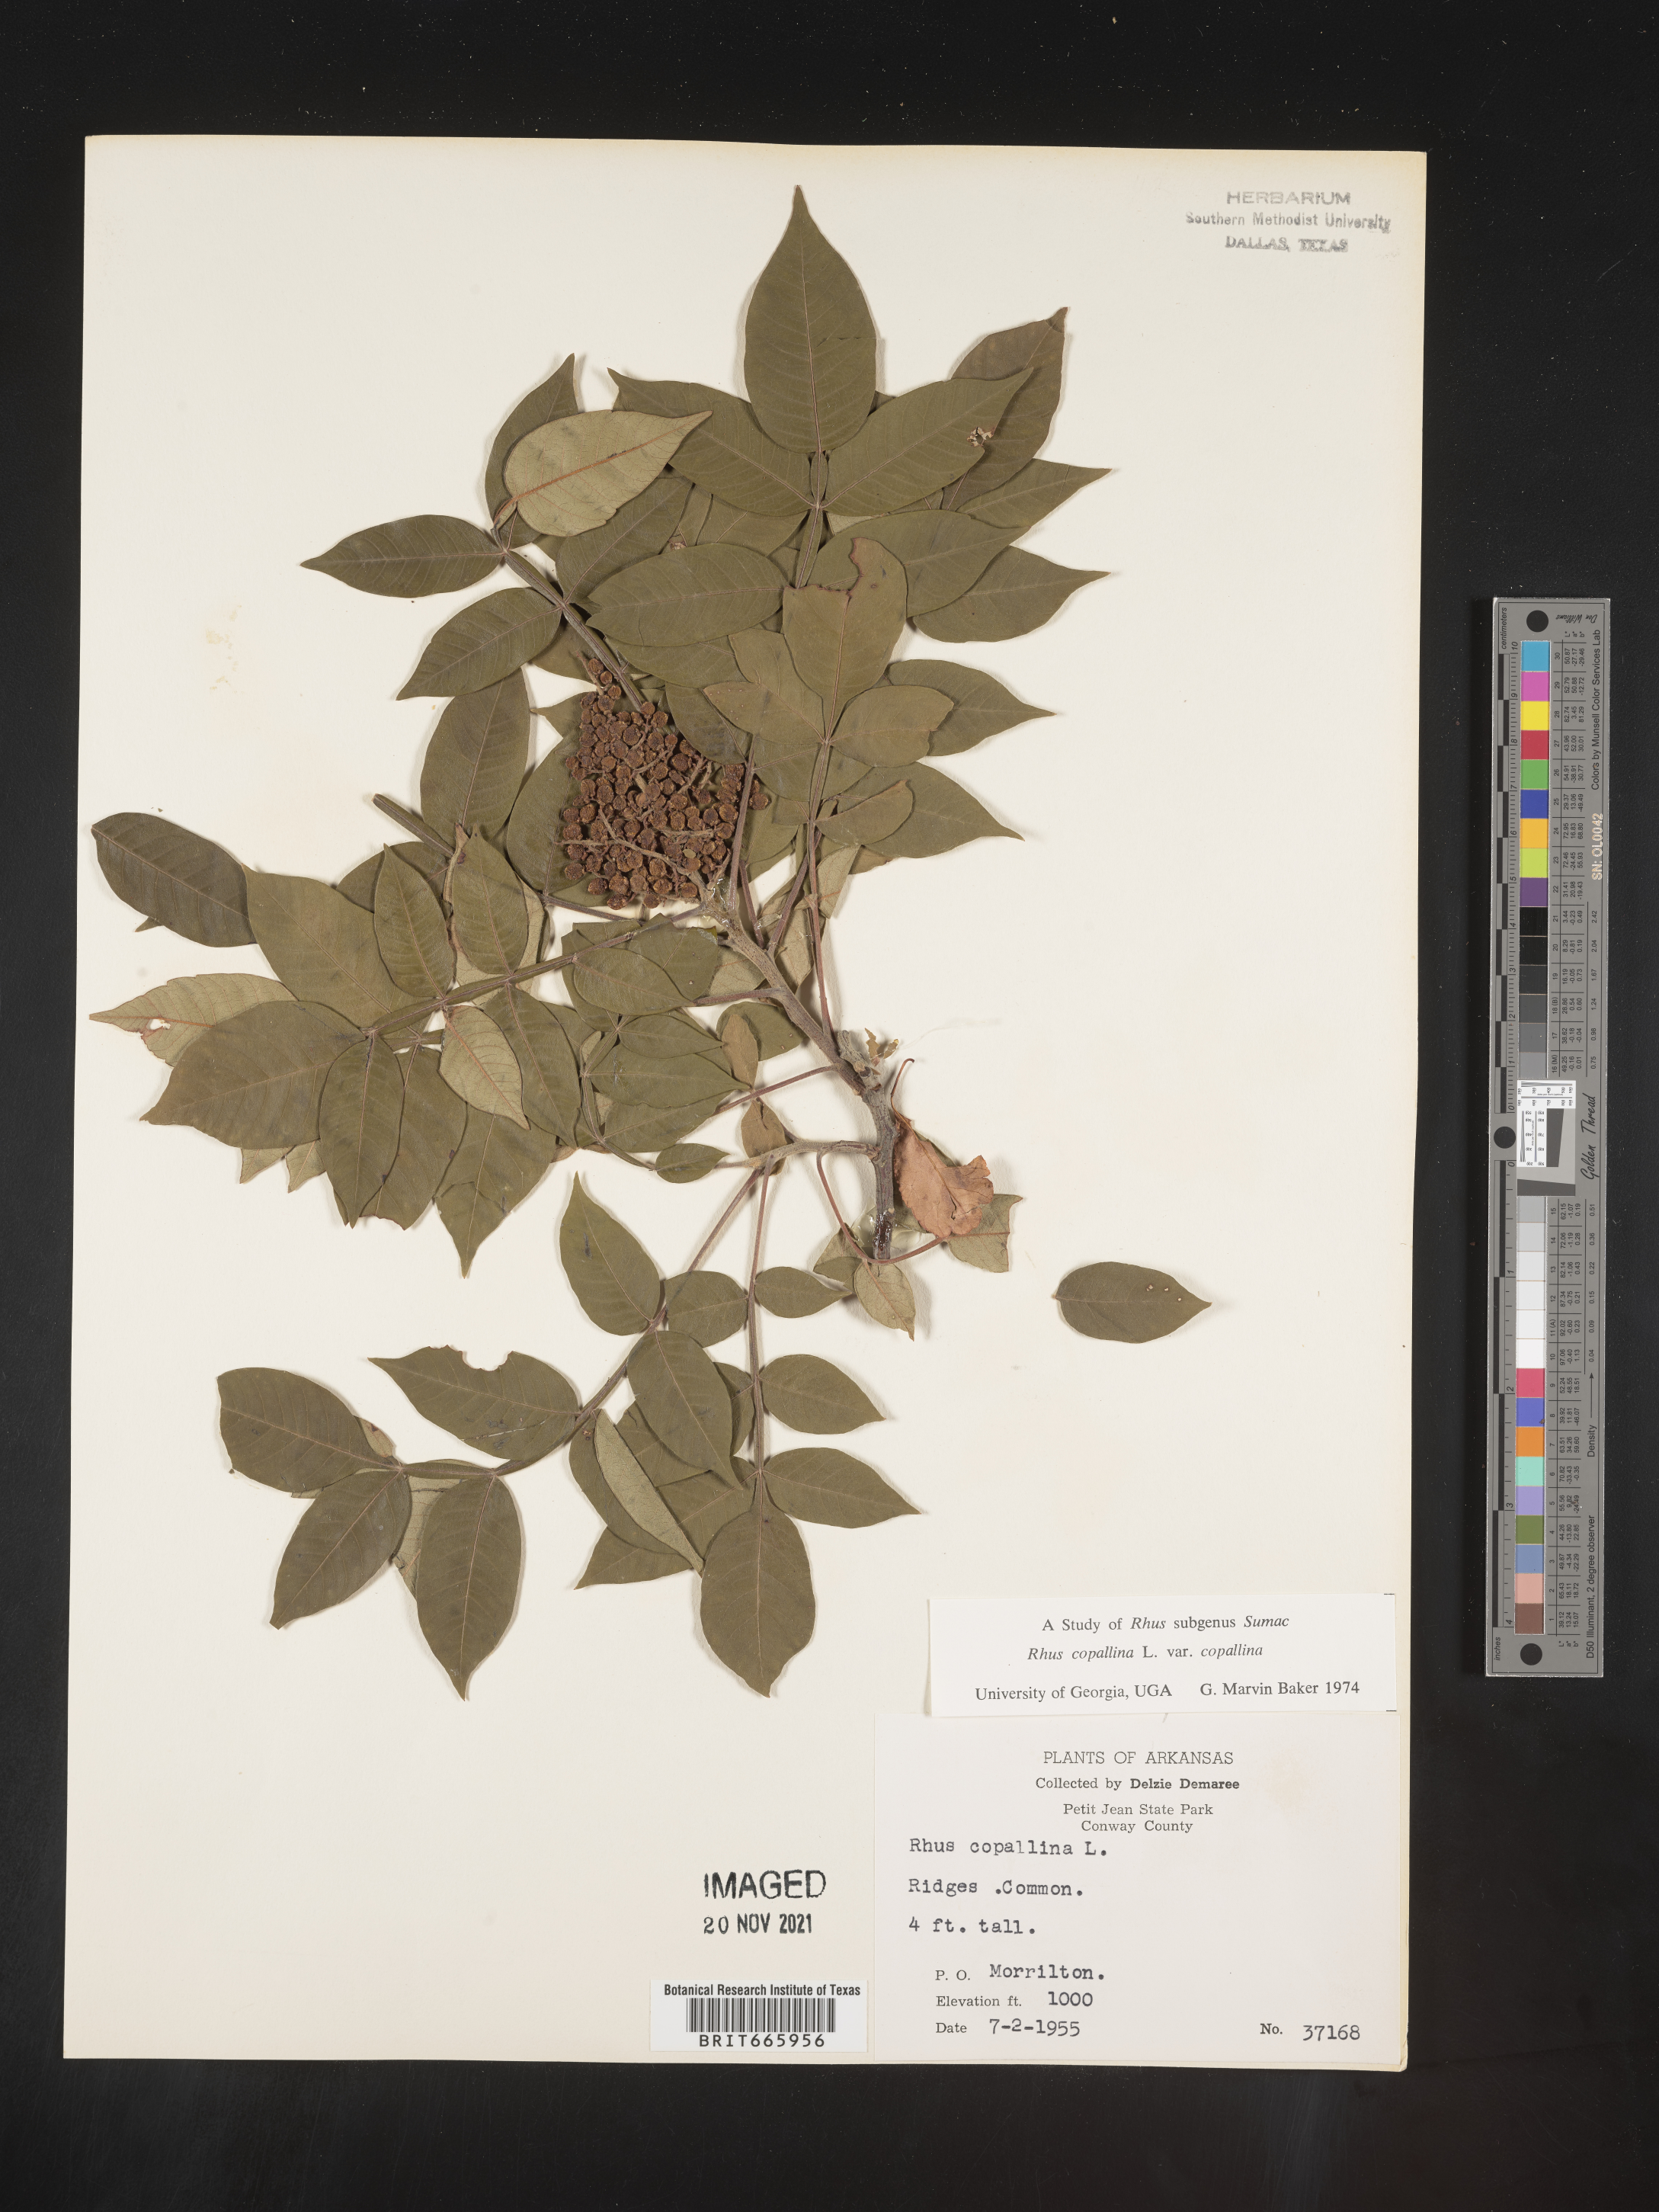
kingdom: Plantae
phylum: Tracheophyta
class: Magnoliopsida
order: Sapindales
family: Anacardiaceae
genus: Rhus
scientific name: Rhus copallina
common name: Shining sumac
